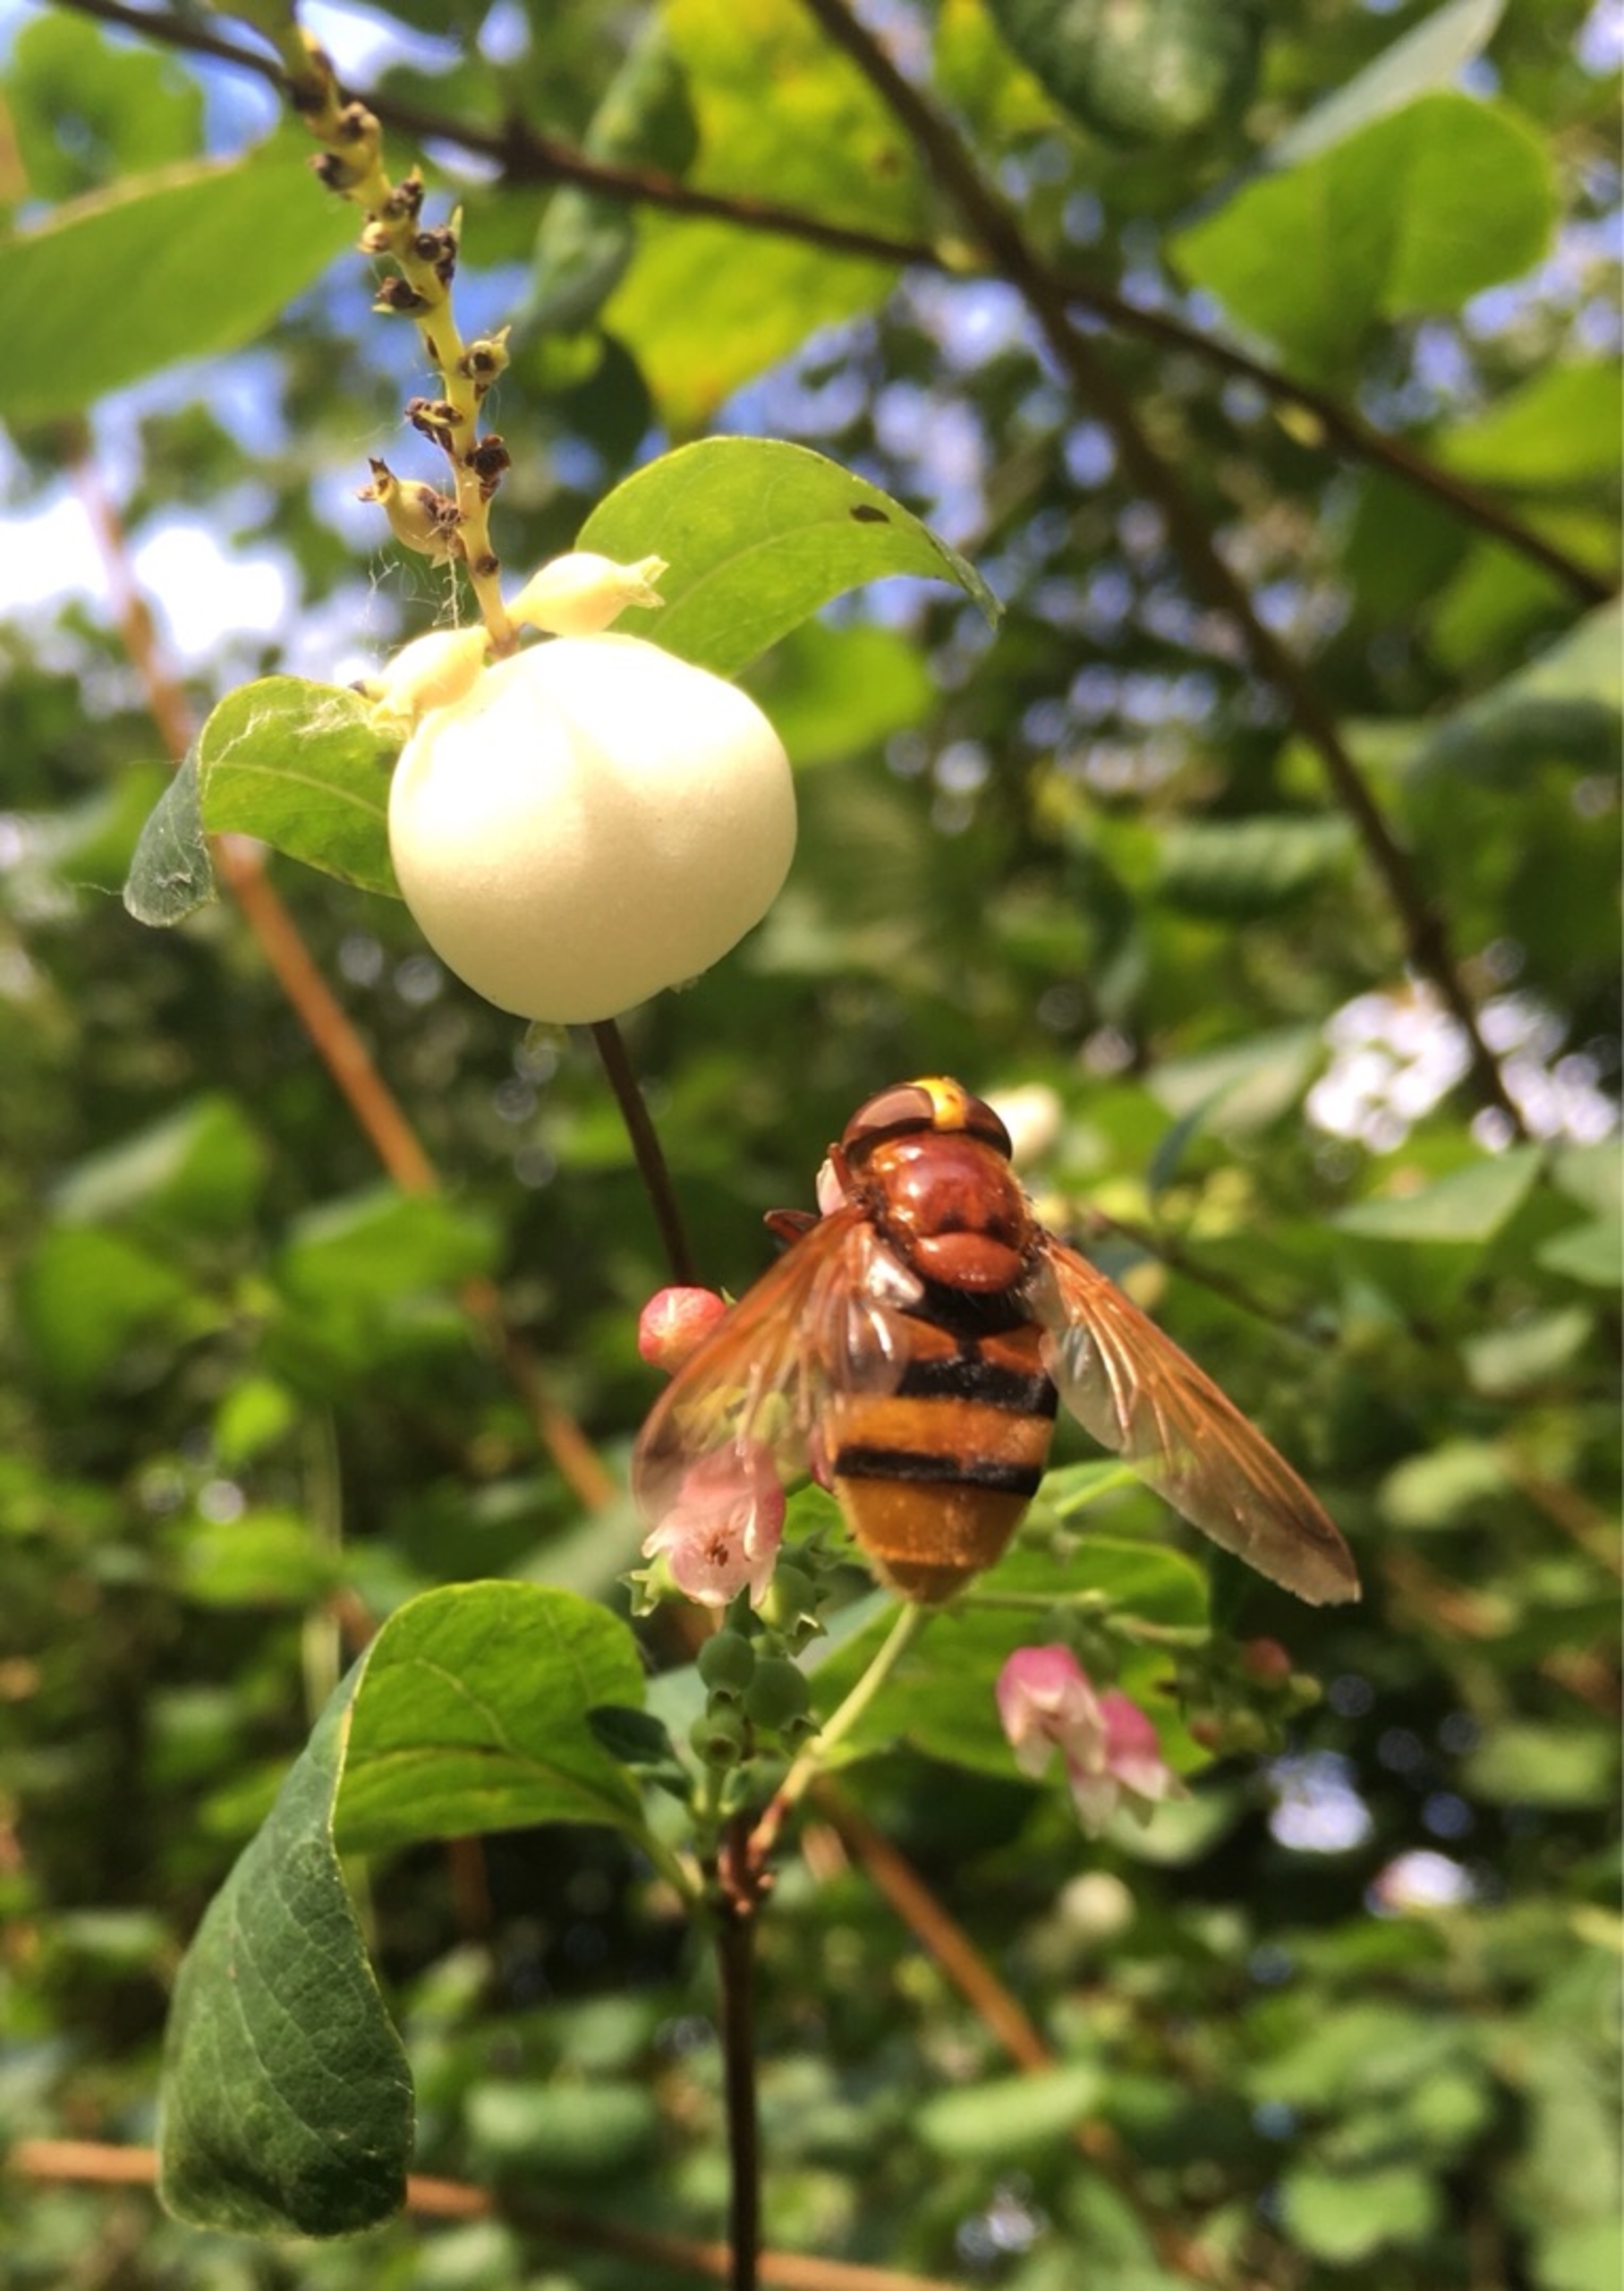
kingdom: Animalia
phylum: Arthropoda
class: Insecta
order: Diptera
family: Syrphidae
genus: Volucella
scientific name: Volucella zonaria
